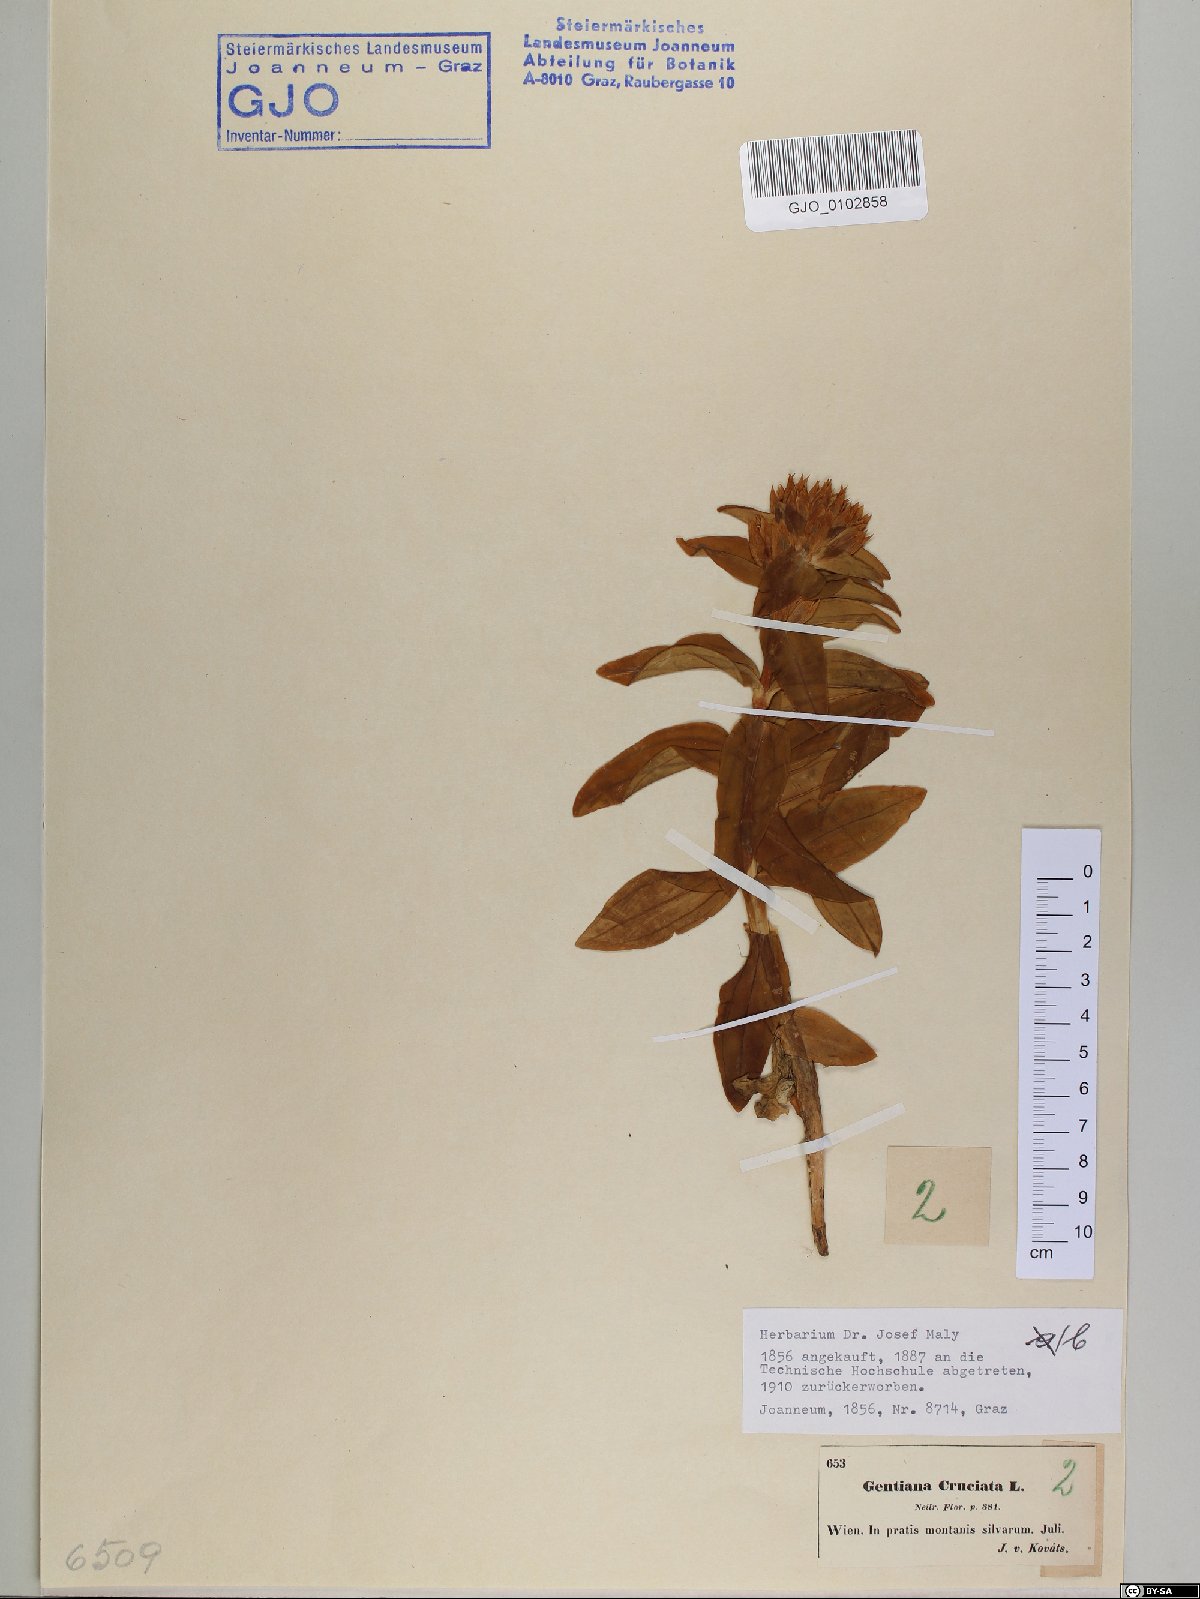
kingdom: Plantae
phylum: Tracheophyta
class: Magnoliopsida
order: Gentianales
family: Gentianaceae
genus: Gentiana
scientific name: Gentiana cruciata
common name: Cross gentian
